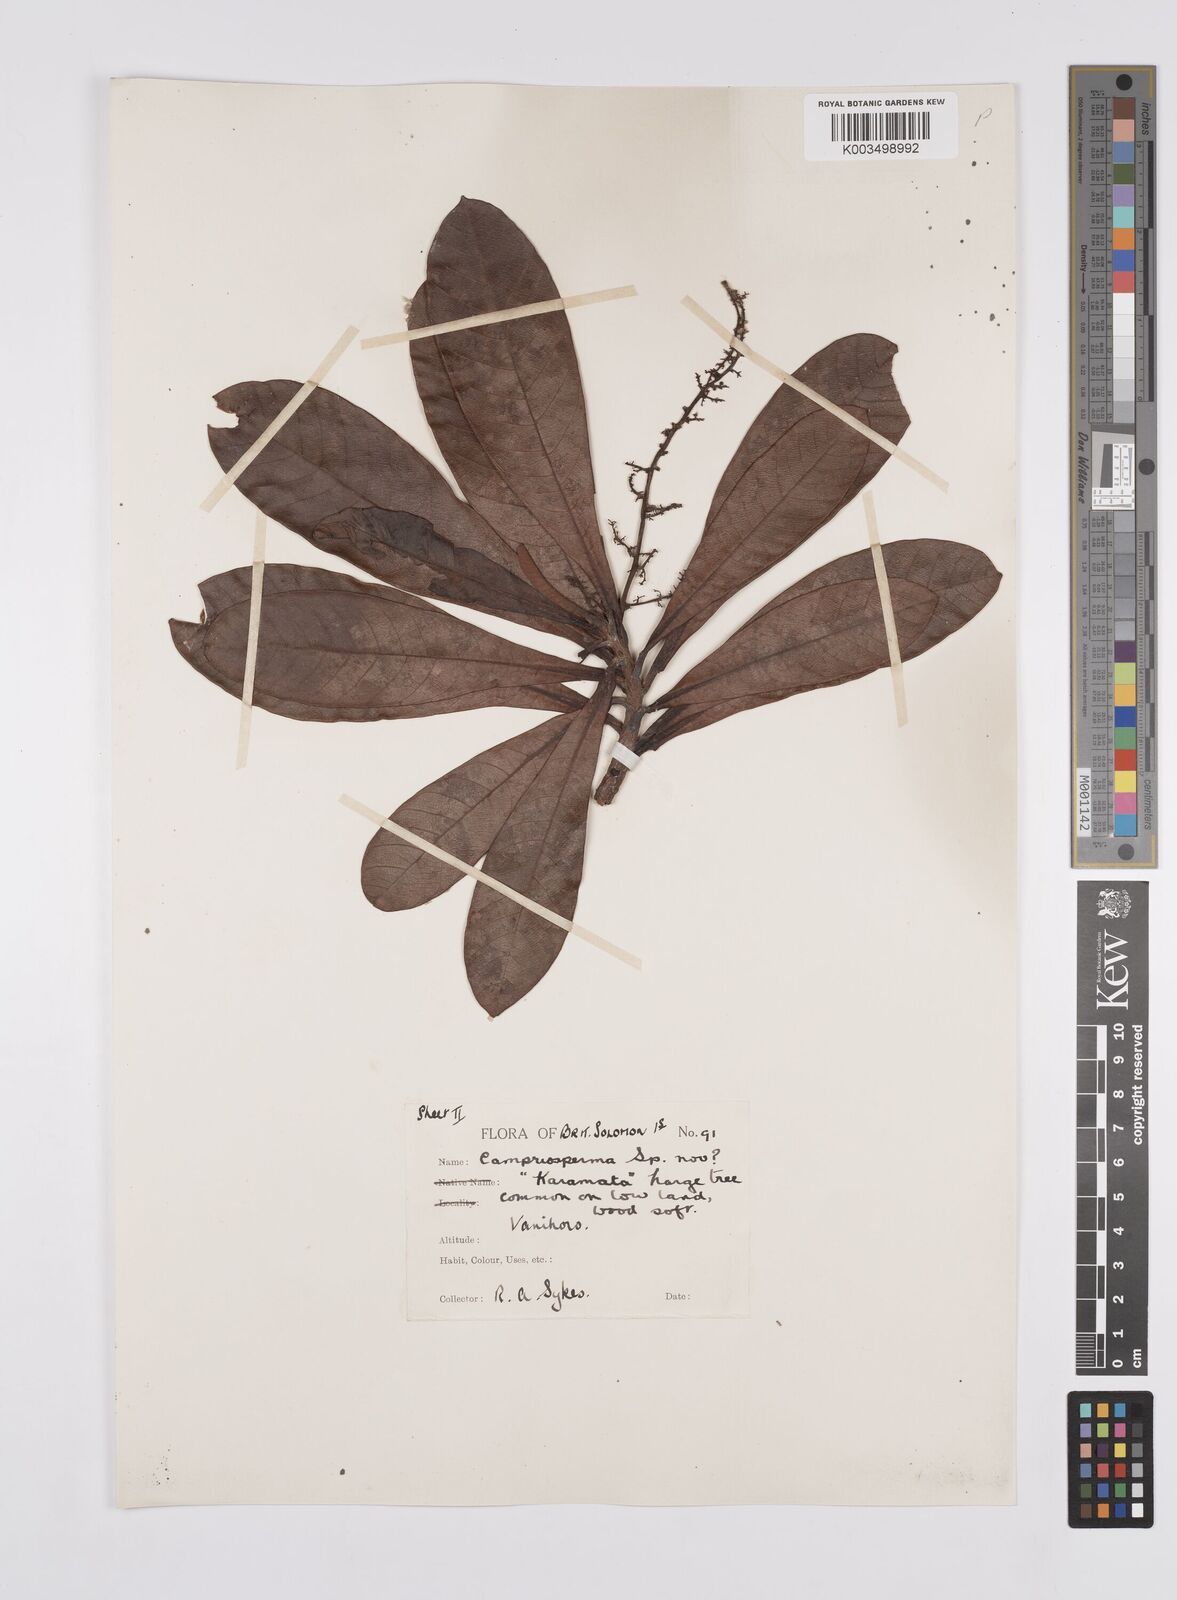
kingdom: Plantae
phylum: Tracheophyta
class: Magnoliopsida
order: Sapindales
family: Anacardiaceae
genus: Campnosperma
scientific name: Campnosperma
